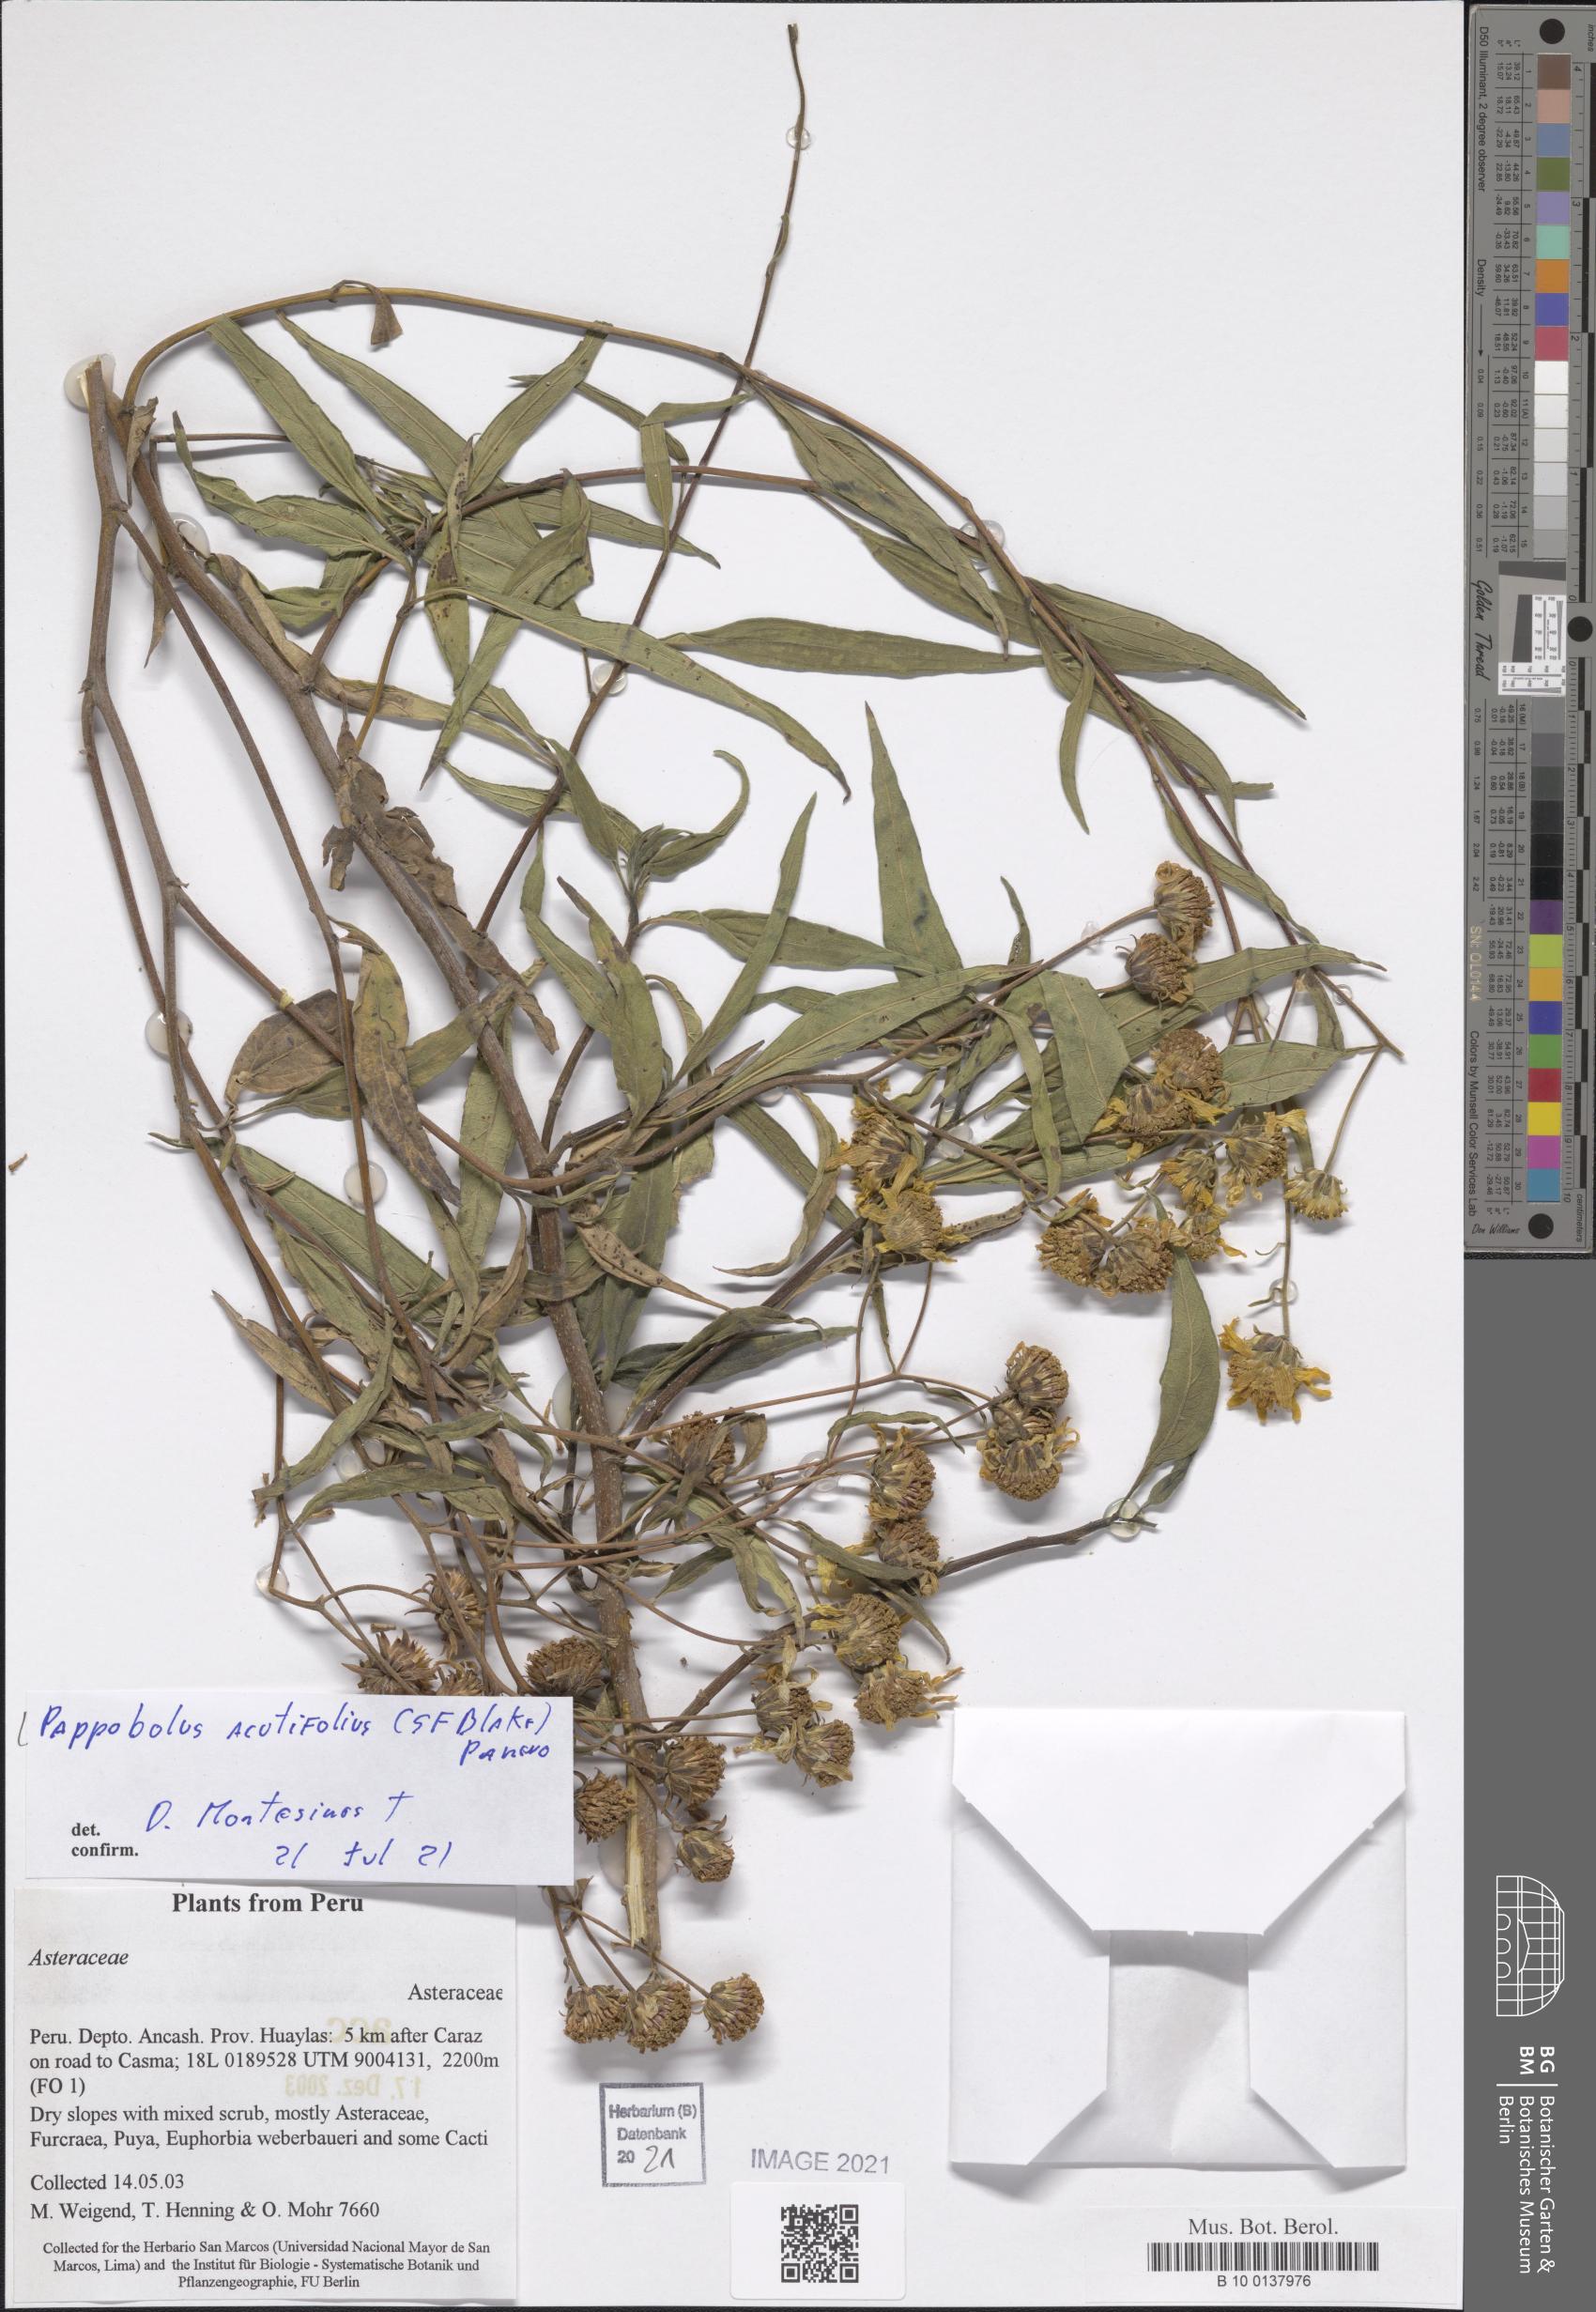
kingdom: Plantae
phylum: Tracheophyta
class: Magnoliopsida
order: Asterales
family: Asteraceae
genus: Pappobolus
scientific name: Pappobolus acutifolius
